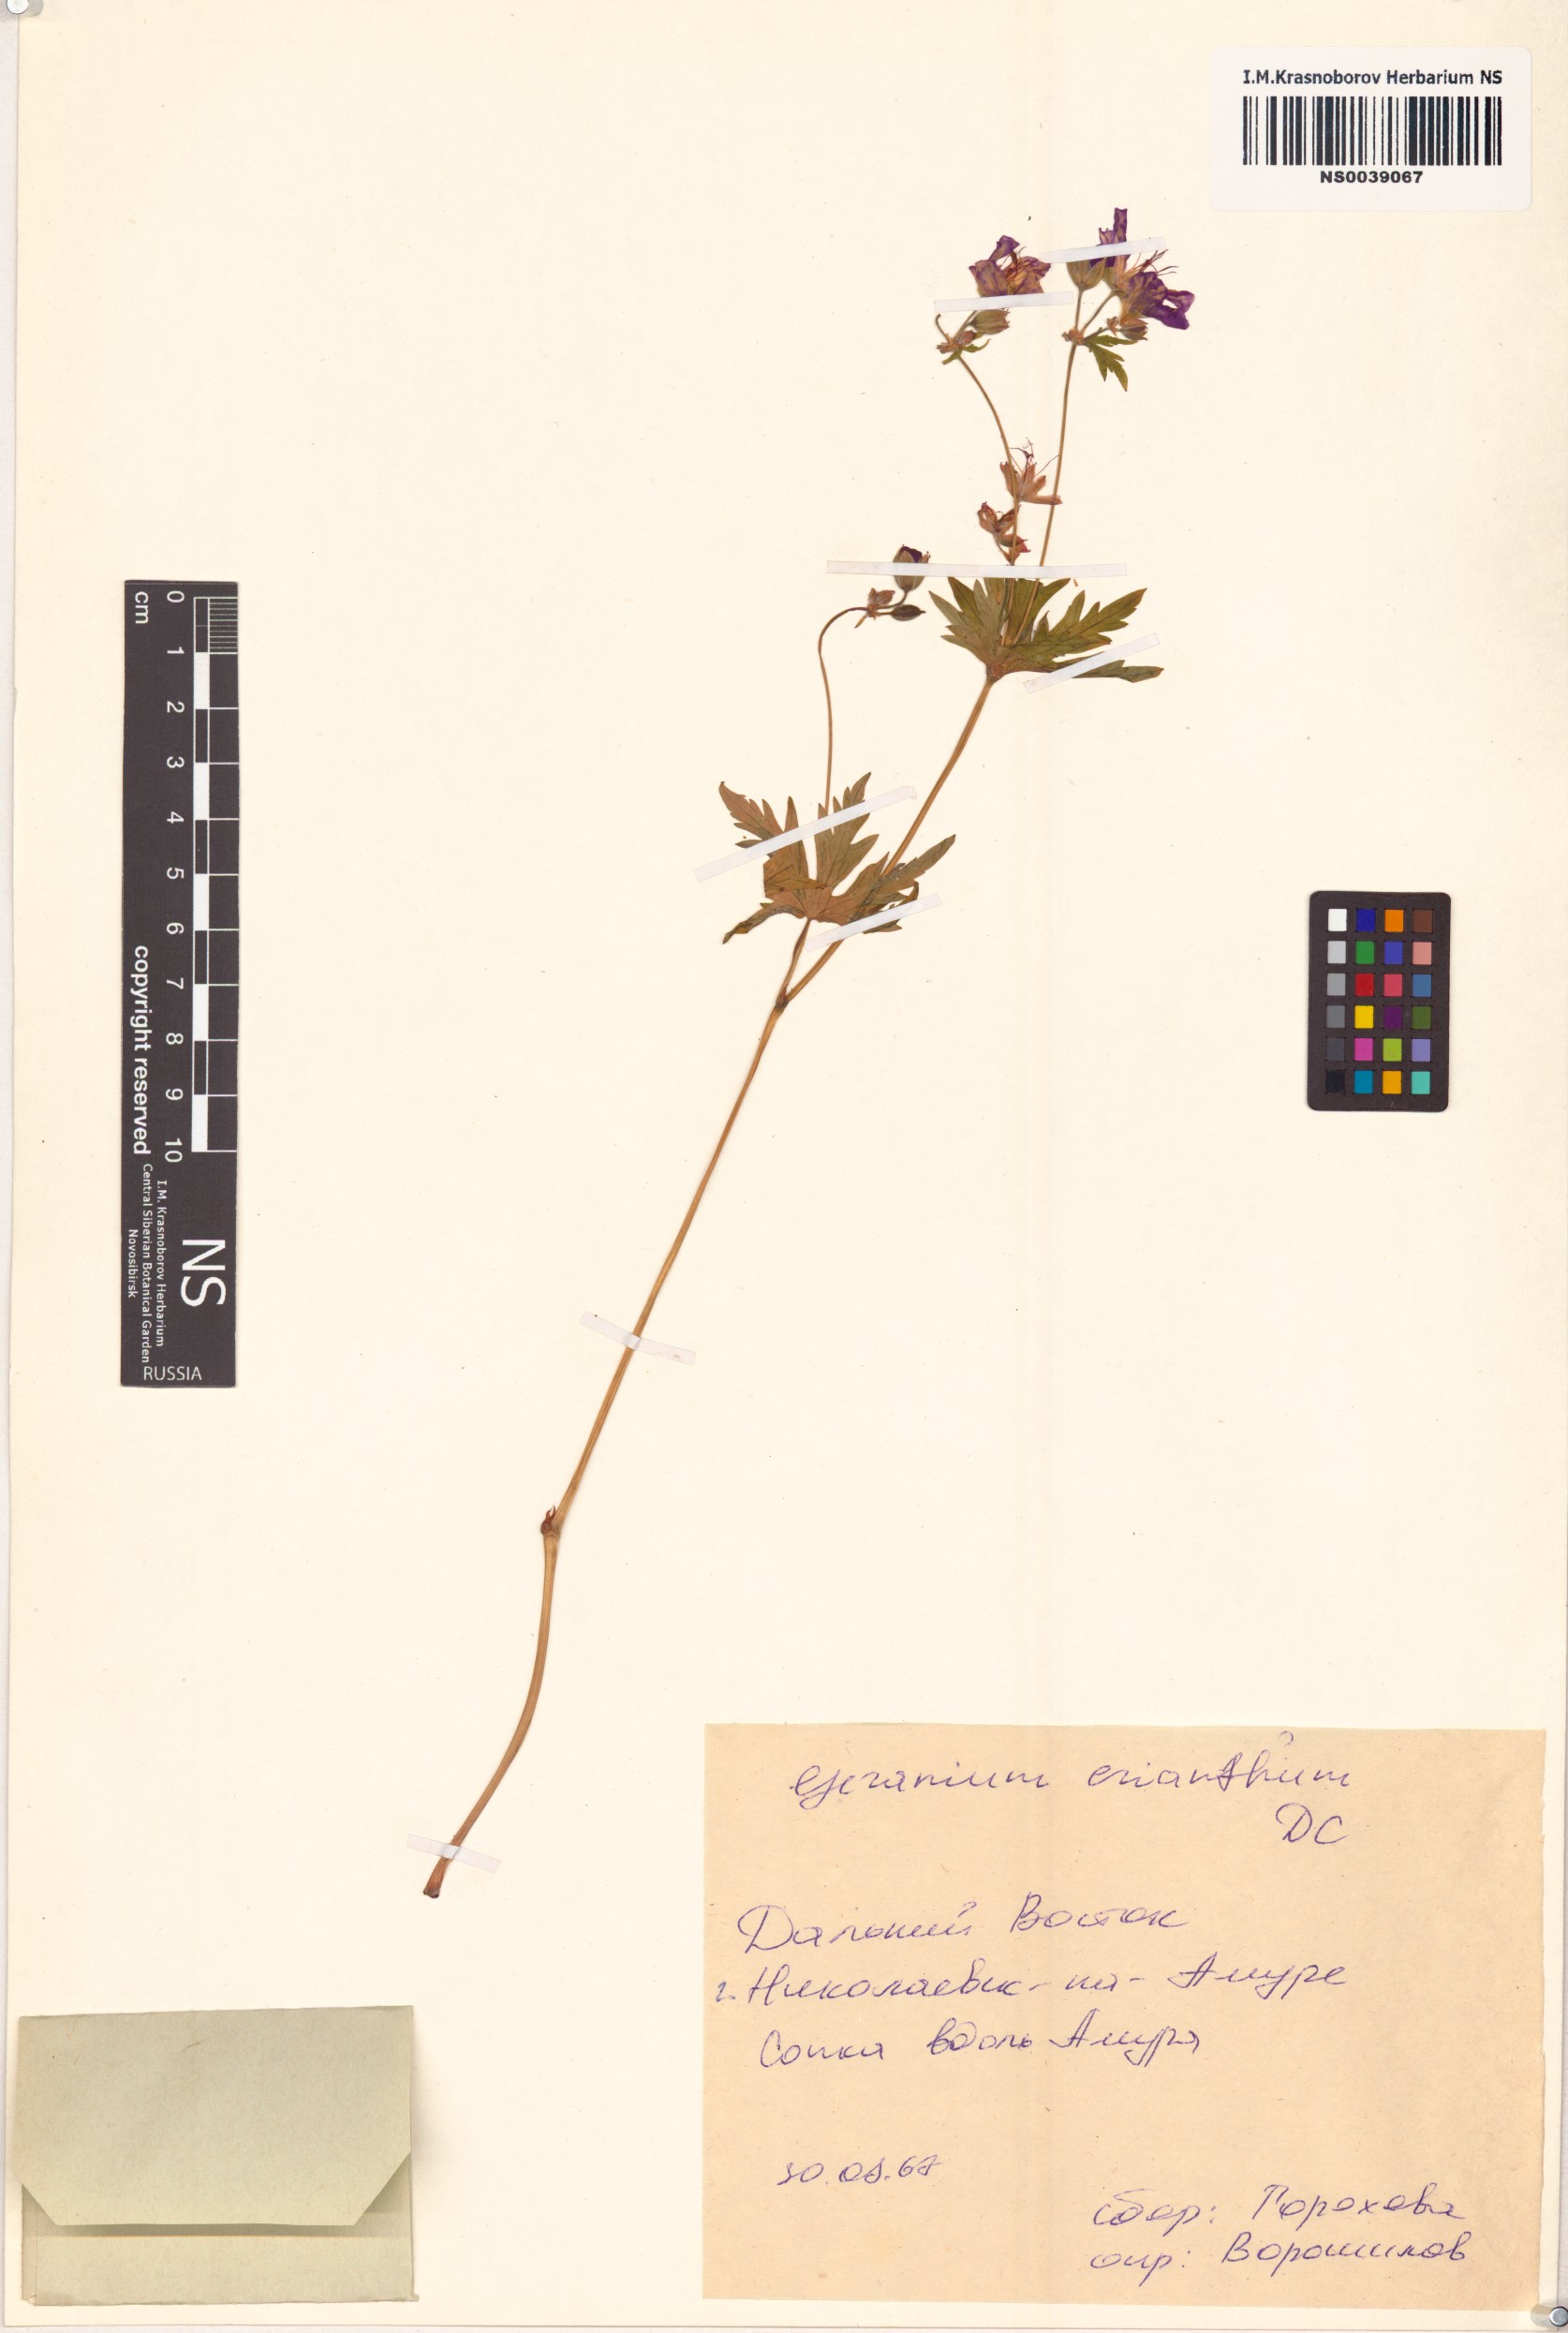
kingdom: Plantae
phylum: Tracheophyta
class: Magnoliopsida
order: Geraniales
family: Geraniaceae
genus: Geranium
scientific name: Geranium erianthum
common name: Northern crane's-bill
